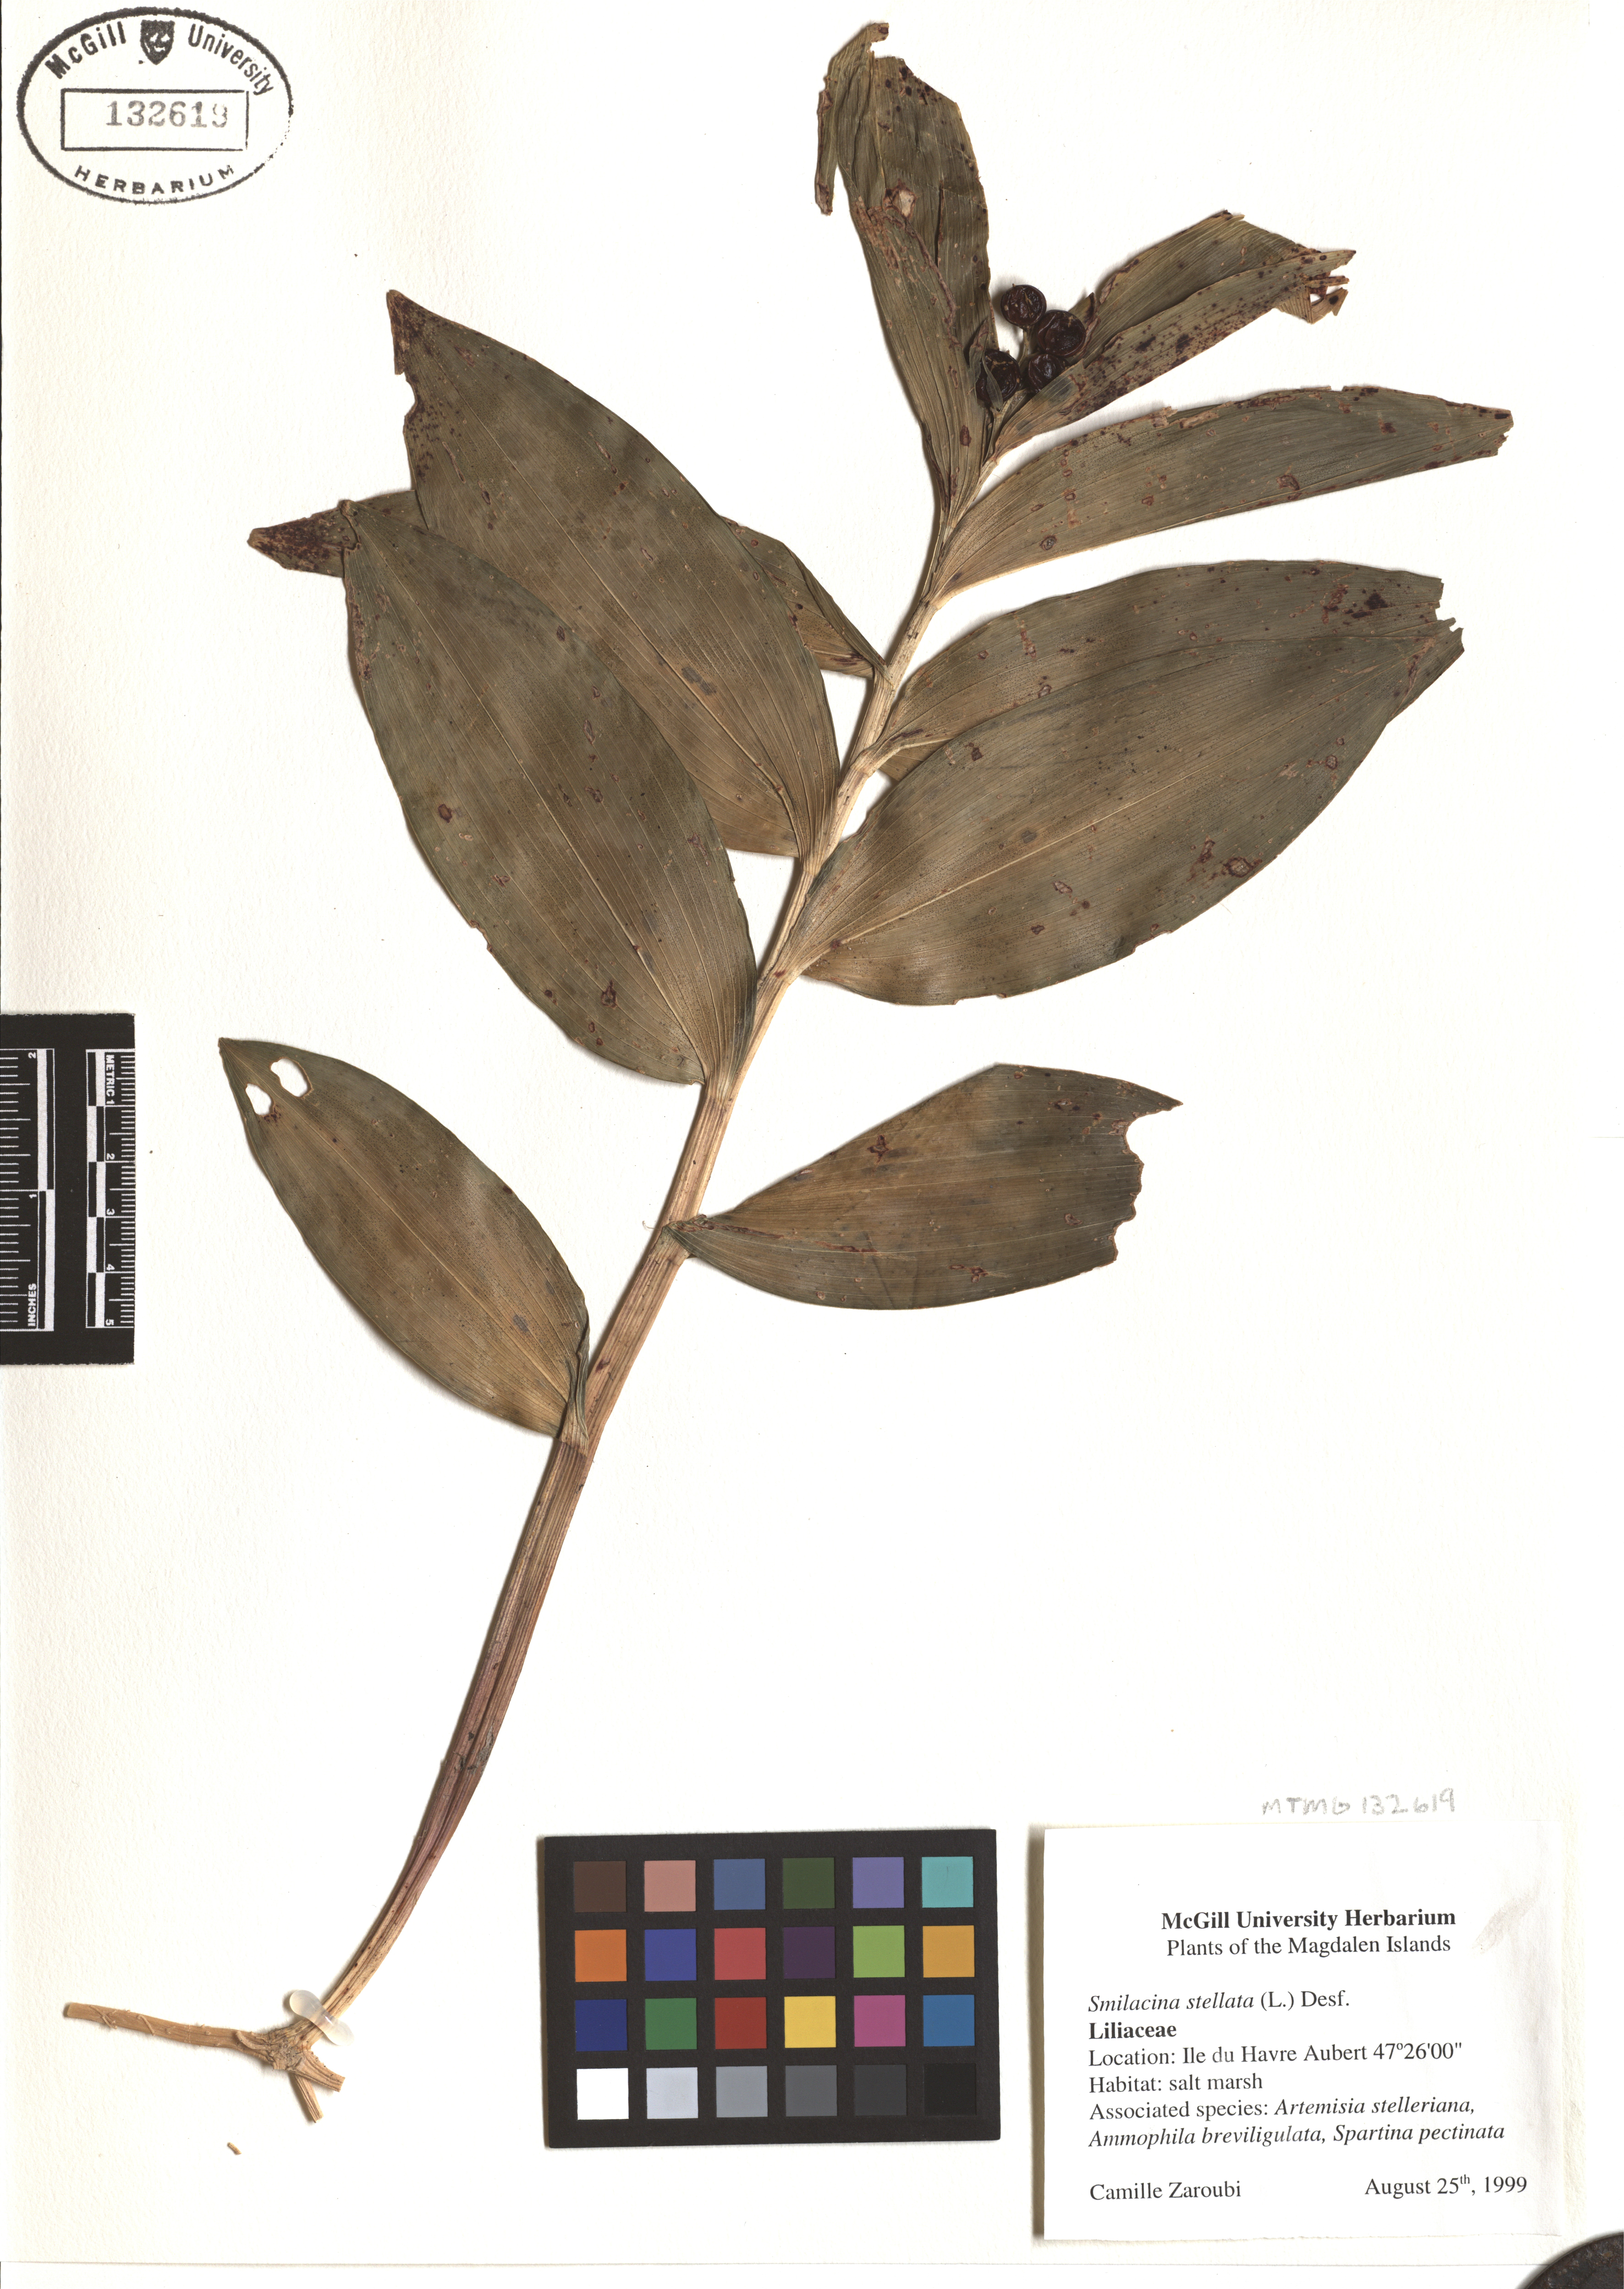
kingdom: Plantae
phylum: Tracheophyta
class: Liliopsida
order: Asparagales
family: Asparagaceae
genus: Maianthemum
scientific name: Maianthemum stellatum
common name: Little false solomon's seal
